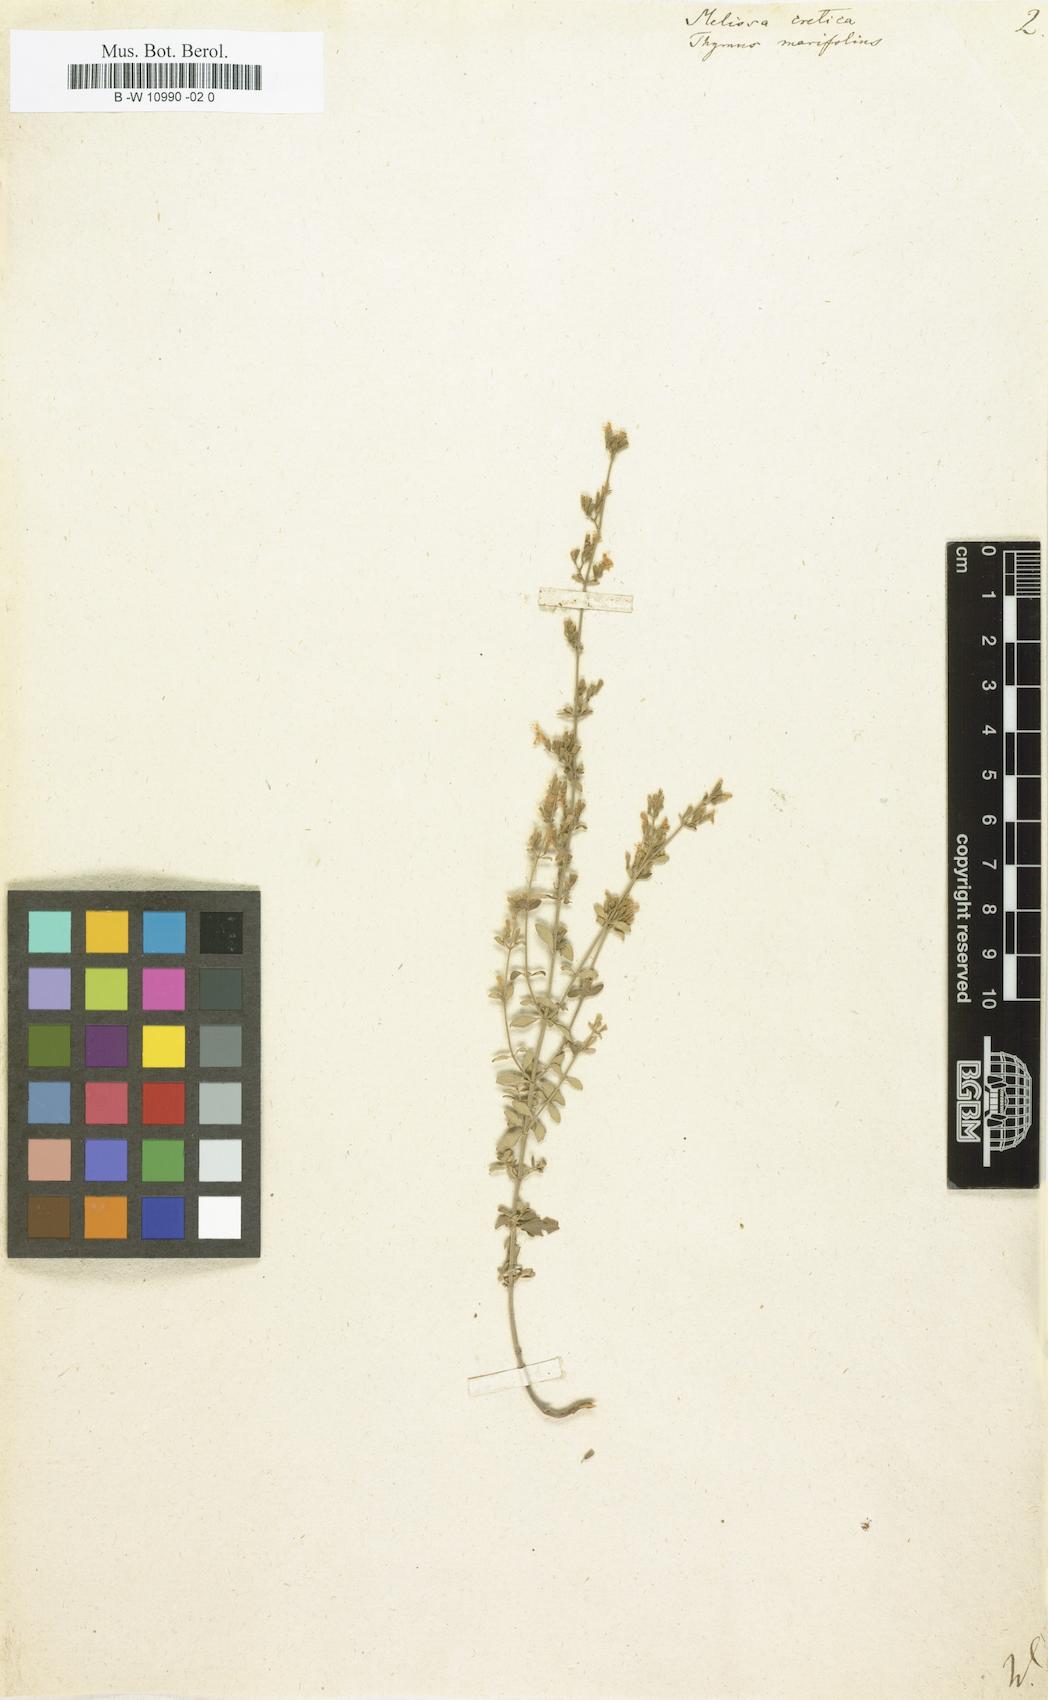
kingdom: Plantae
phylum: Tracheophyta
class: Magnoliopsida
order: Lamiales
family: Lamiaceae
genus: Melissa
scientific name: Melissa cretica
